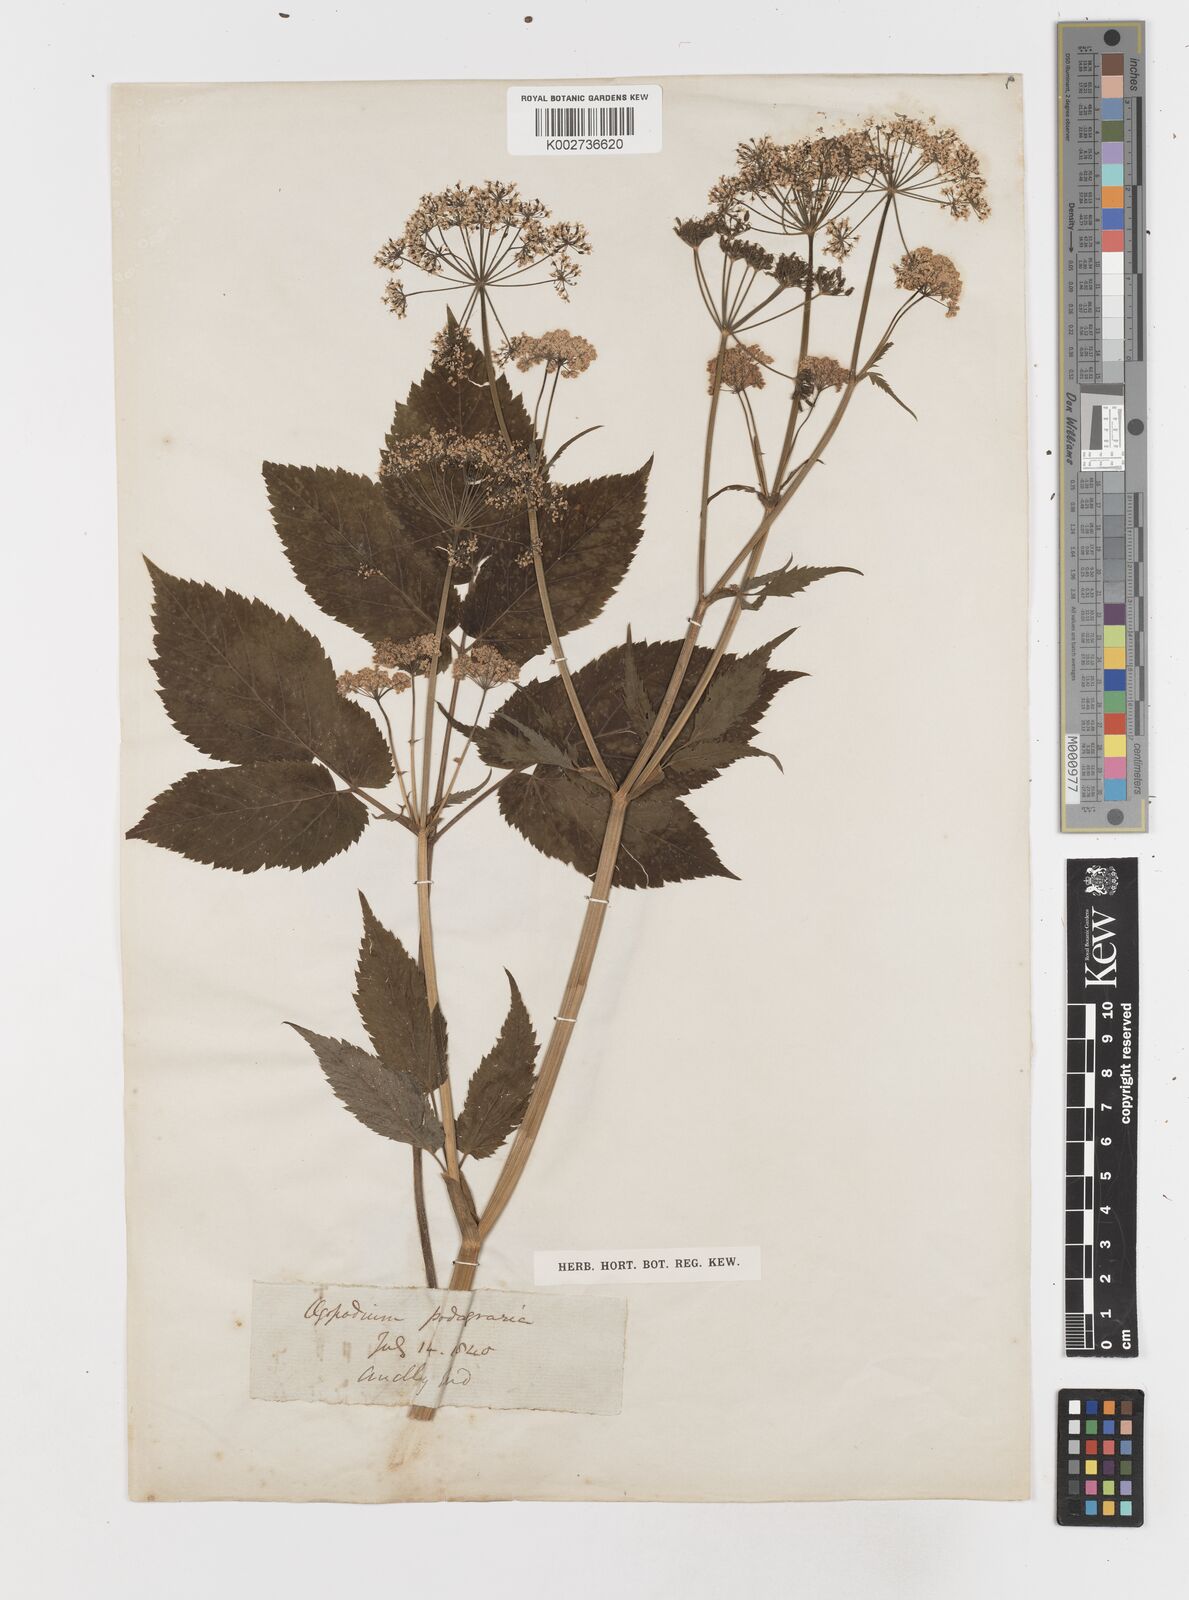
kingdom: Plantae
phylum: Tracheophyta
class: Magnoliopsida
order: Apiales
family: Apiaceae
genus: Aegopodium
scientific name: Aegopodium podagraria
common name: Ground-elder
